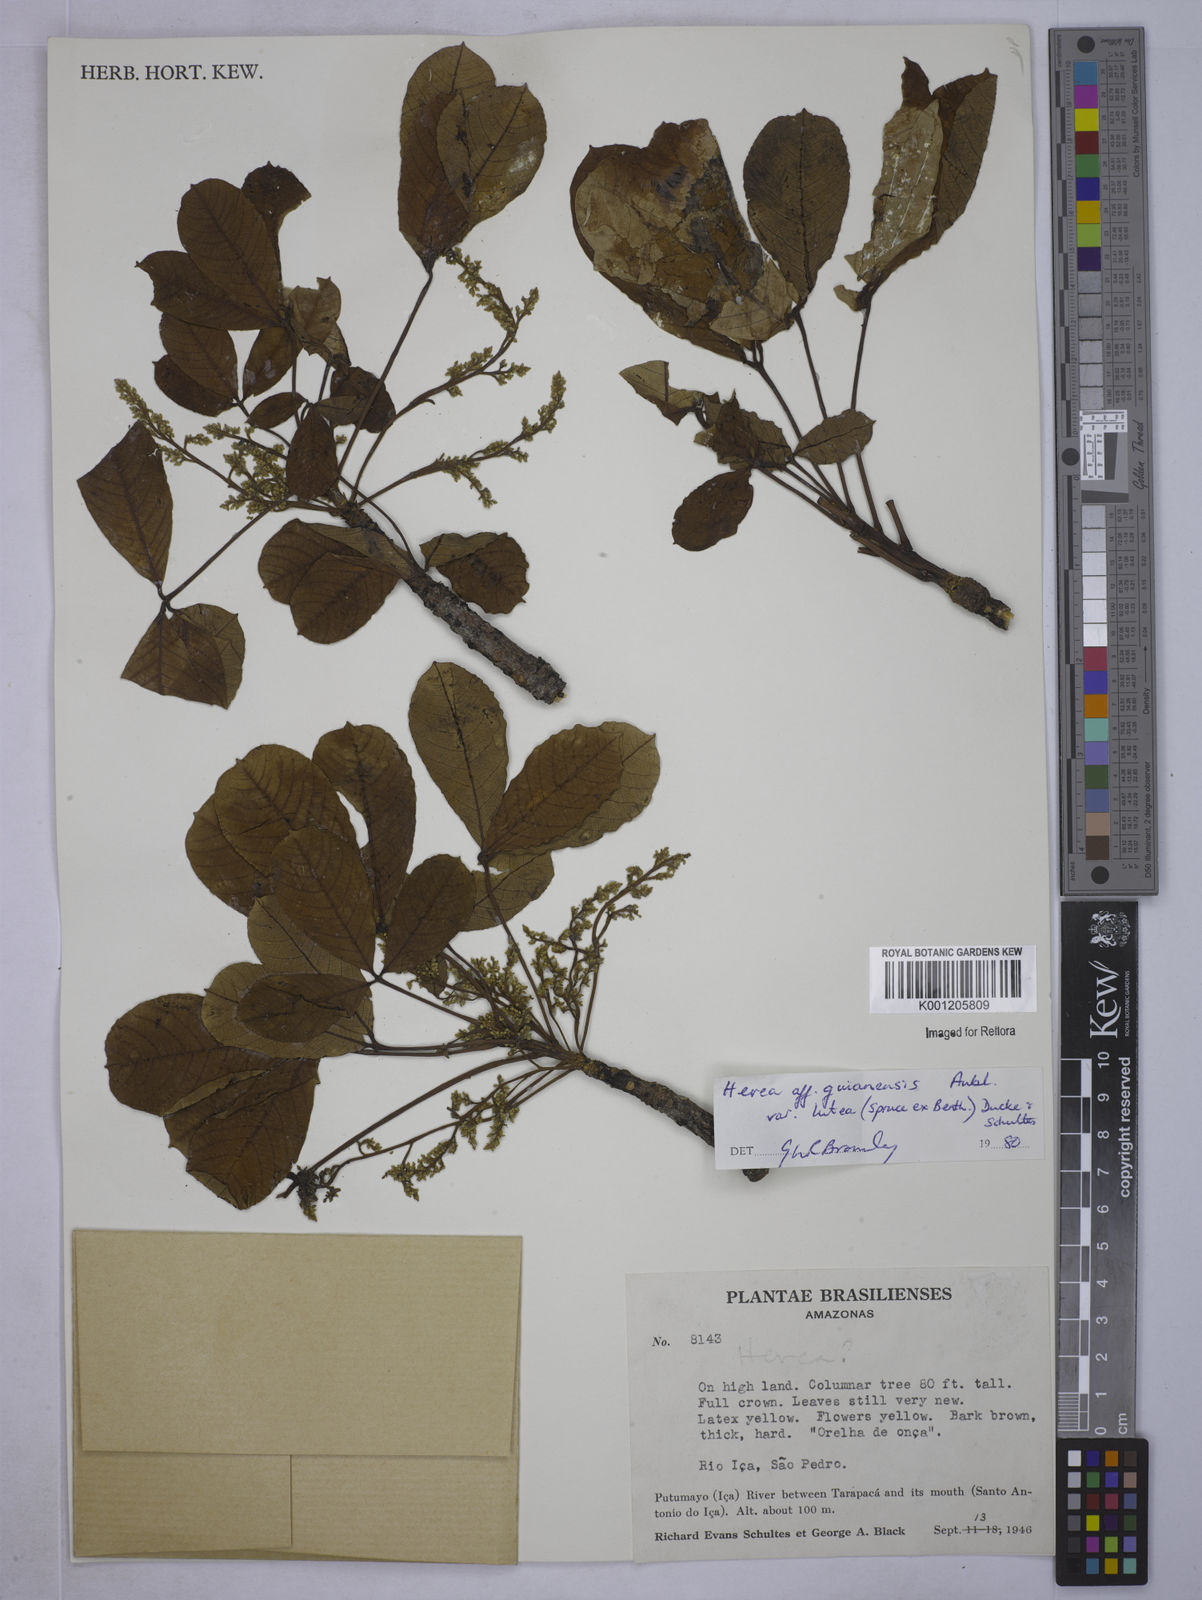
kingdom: Plantae
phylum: Tracheophyta
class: Magnoliopsida
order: Malpighiales
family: Euphorbiaceae
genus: Hevea
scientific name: Hevea guianensis
